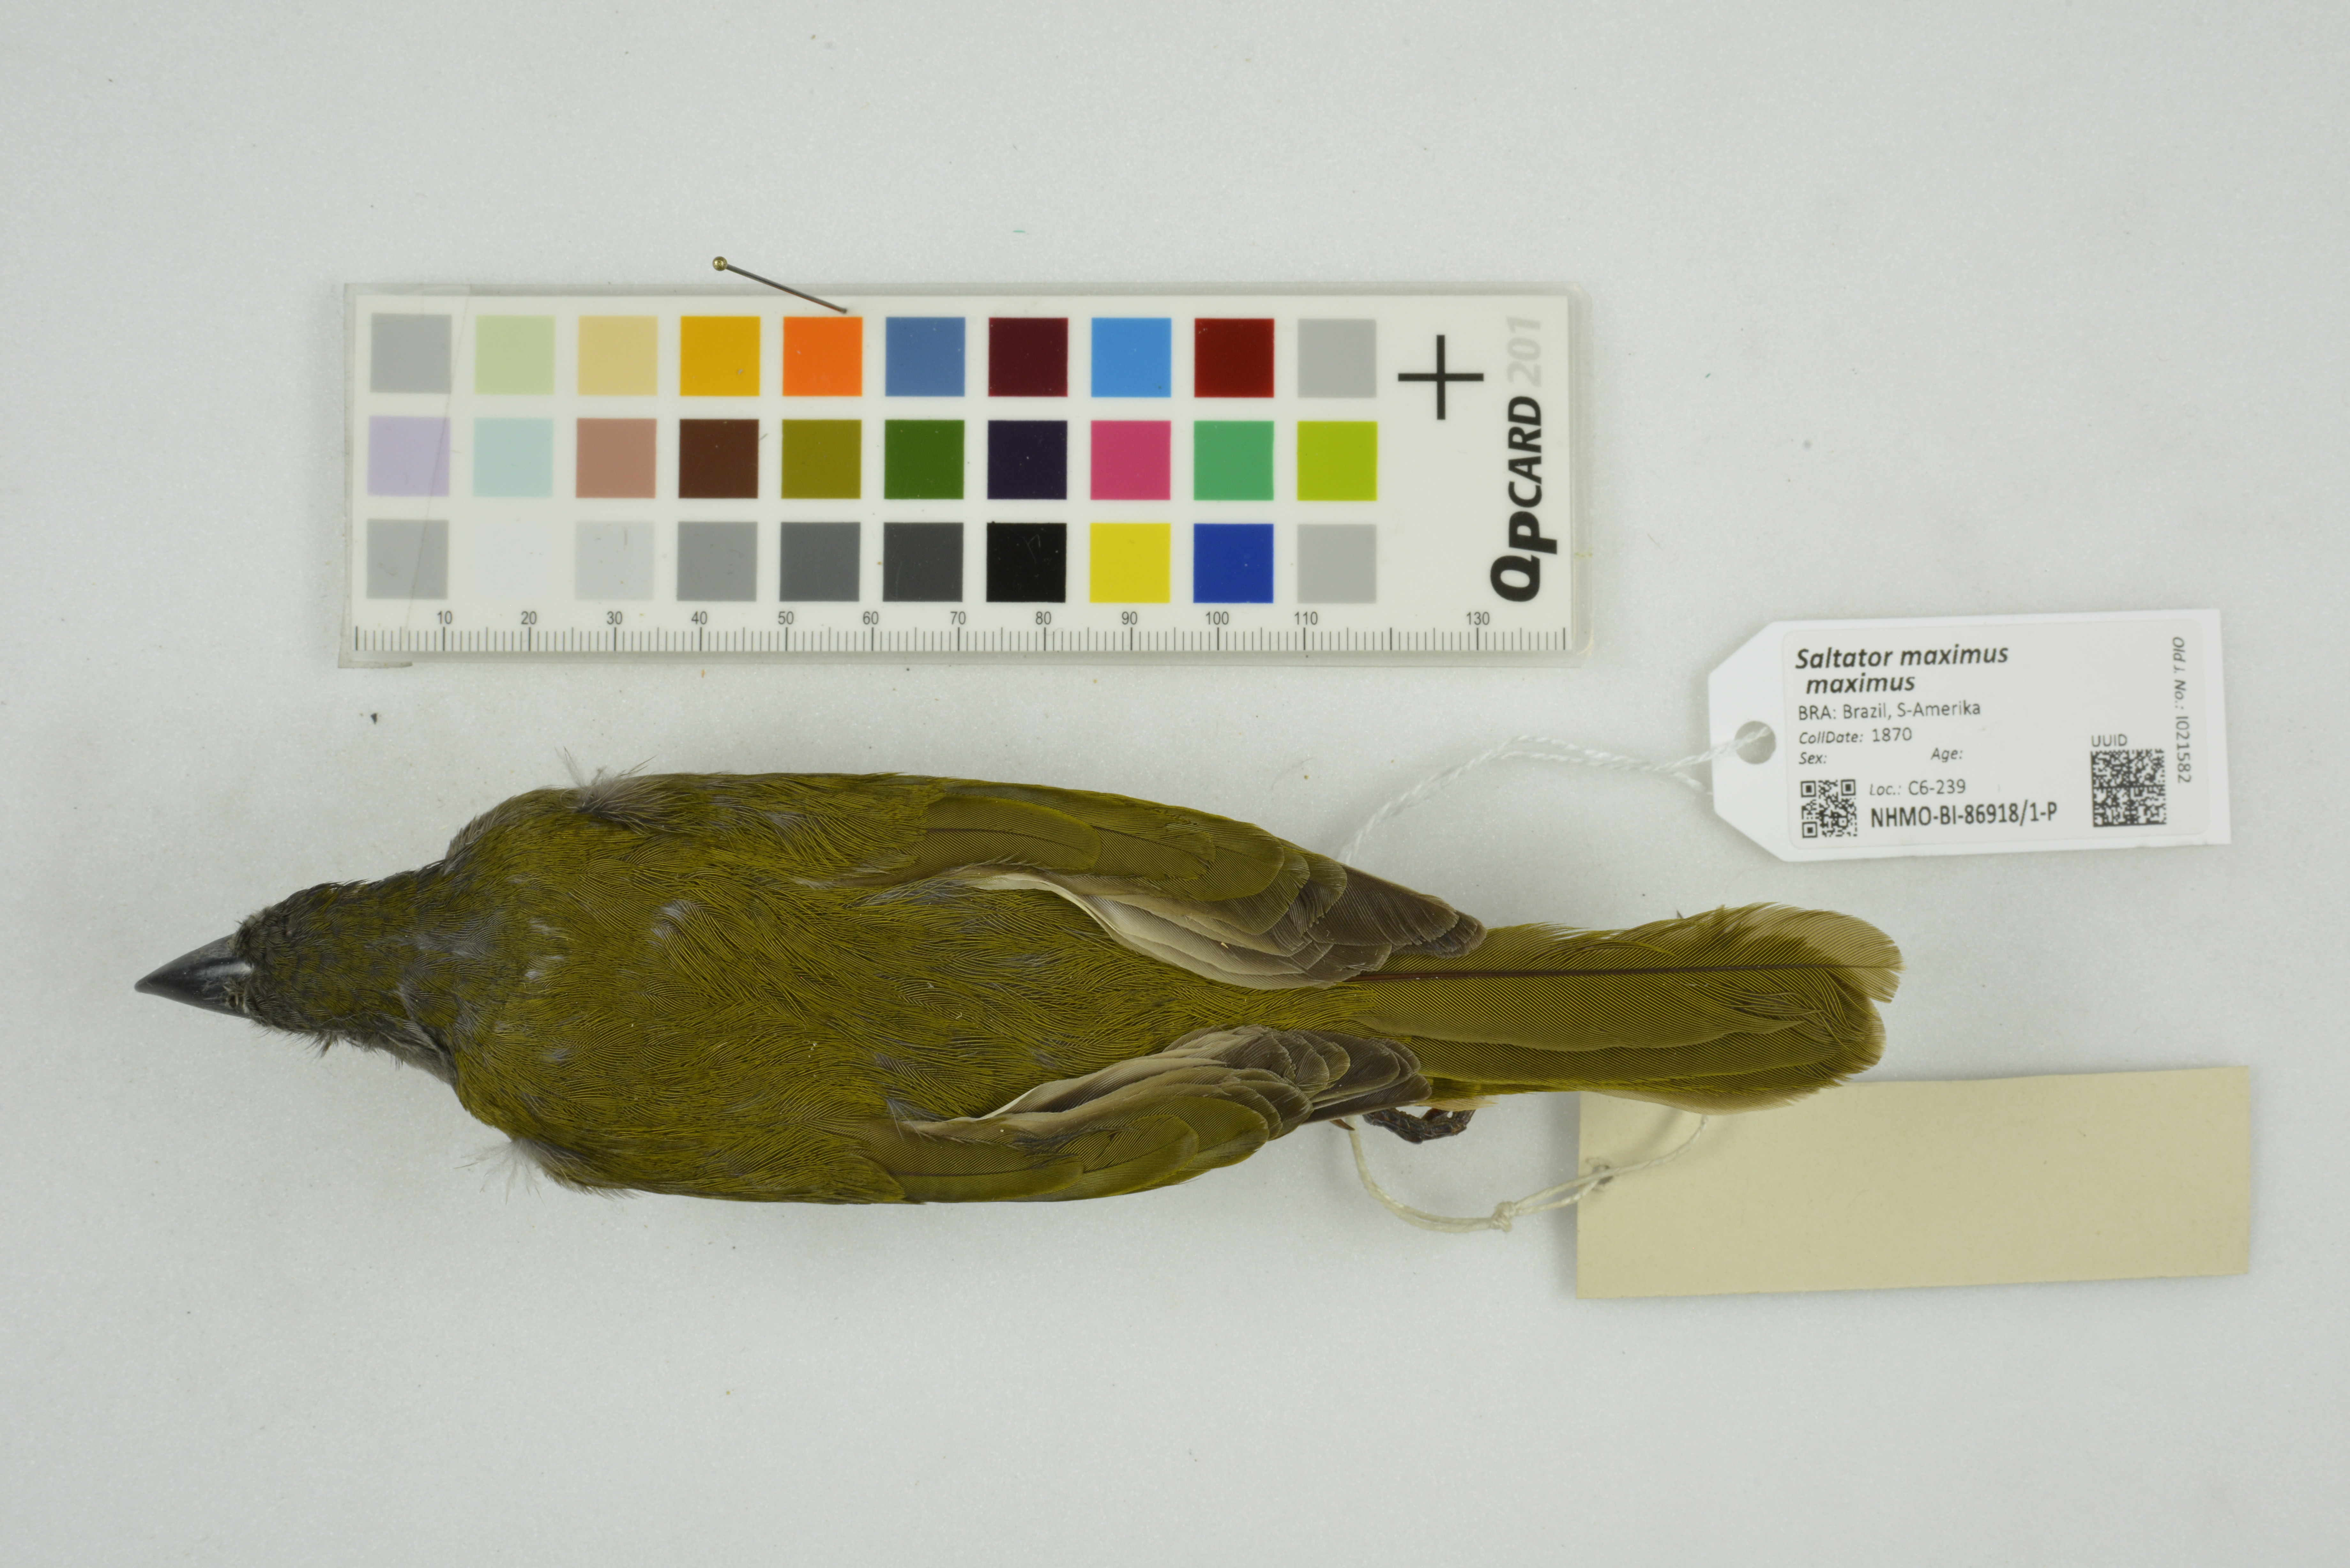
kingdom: Animalia
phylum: Chordata
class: Aves
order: Passeriformes
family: Thraupidae
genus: Saltator
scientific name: Saltator maximus
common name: Buff-throated saltator
